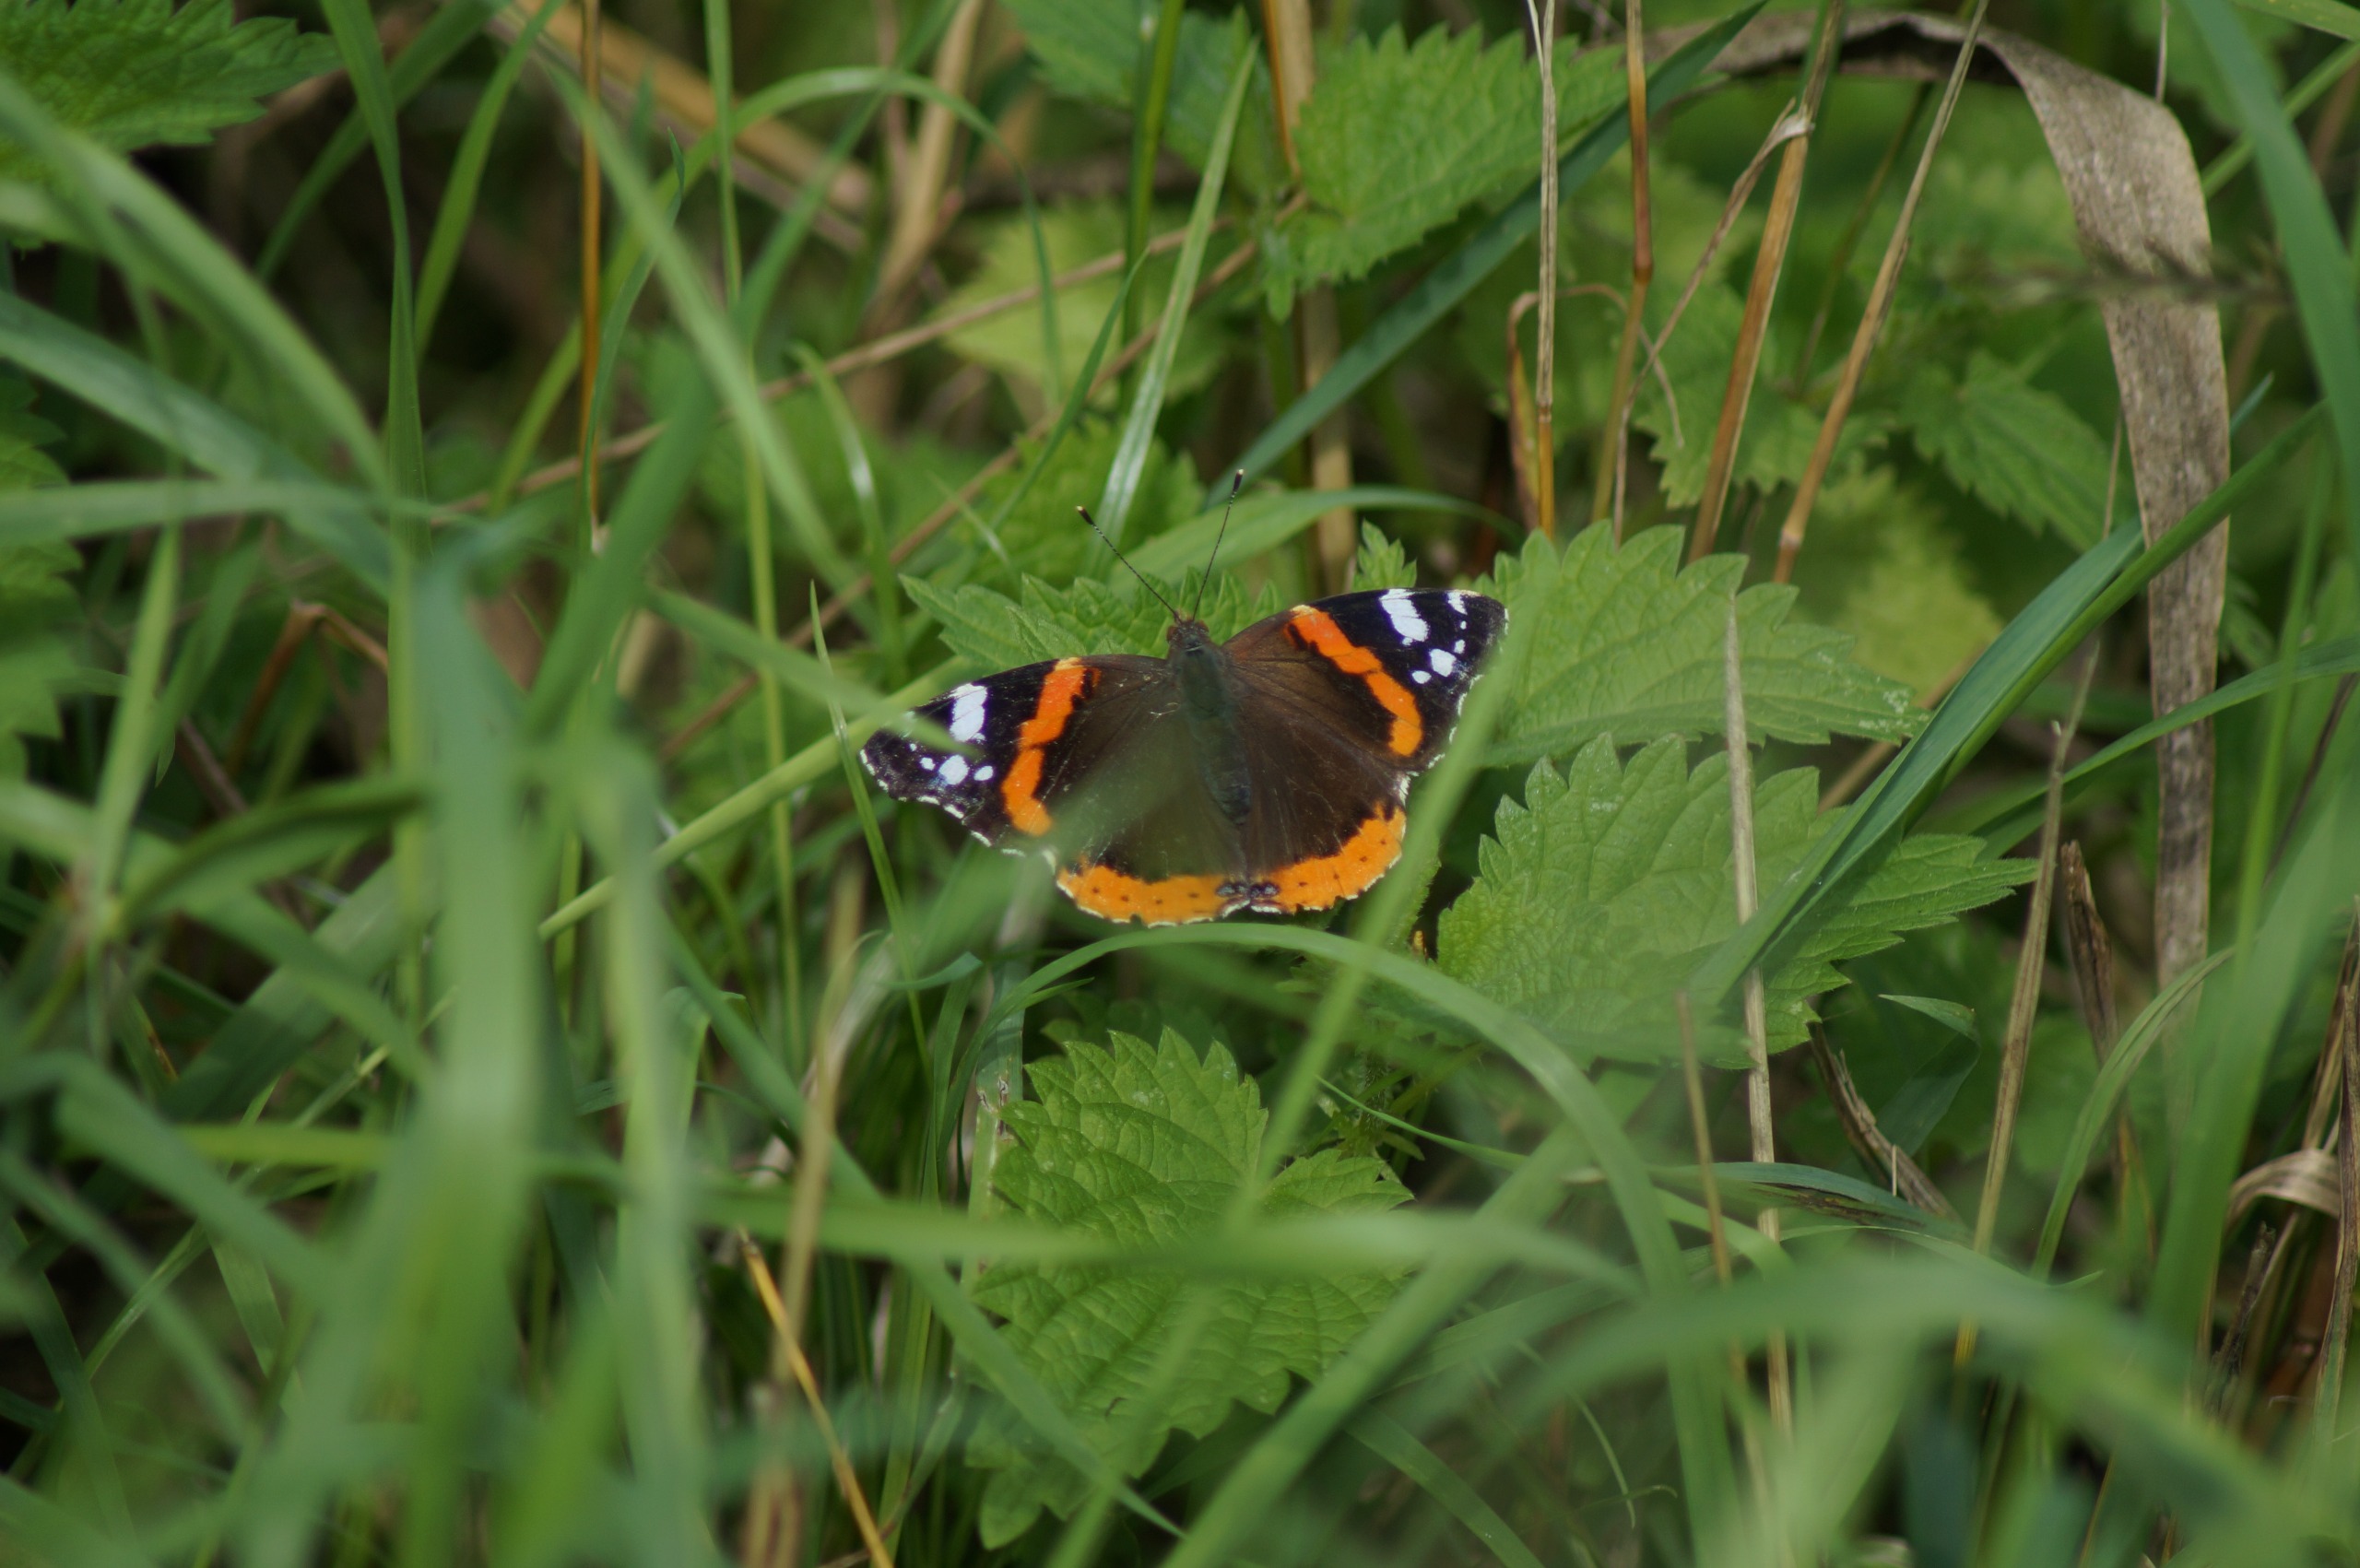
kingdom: Animalia
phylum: Arthropoda
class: Insecta
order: Lepidoptera
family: Nymphalidae
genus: Vanessa
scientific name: Vanessa atalanta
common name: Admiral
